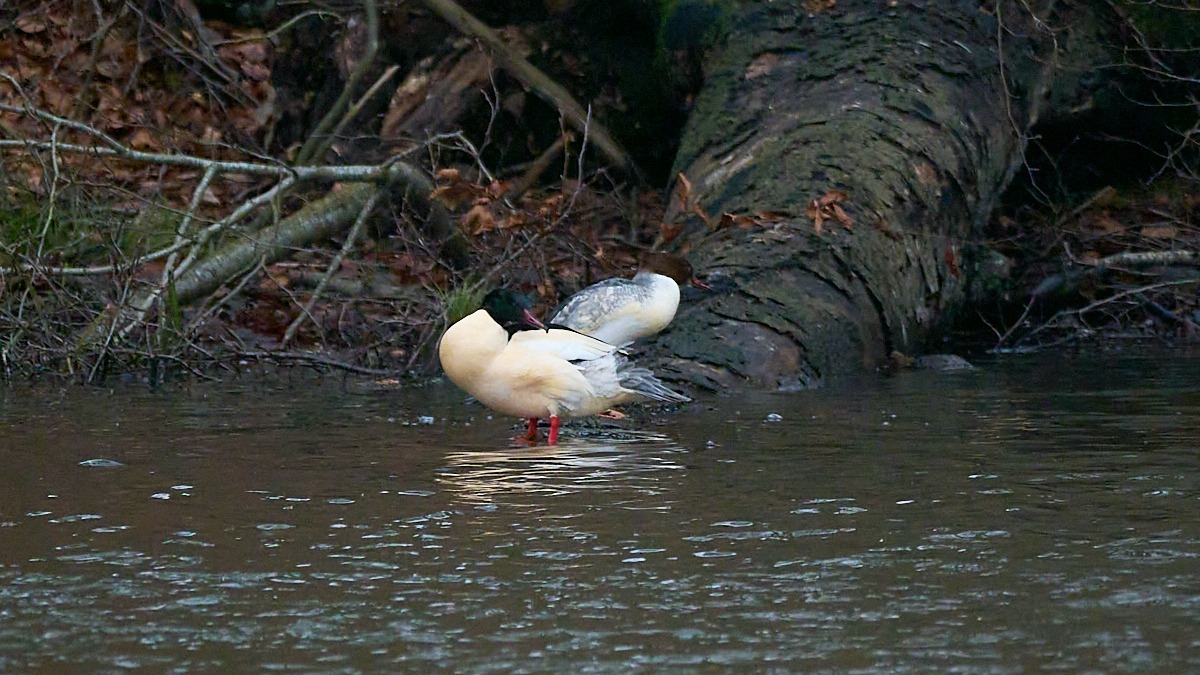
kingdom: Animalia
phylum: Chordata
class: Aves
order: Anseriformes
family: Anatidae
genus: Mergus
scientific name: Mergus merganser
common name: Stor skallesluger
